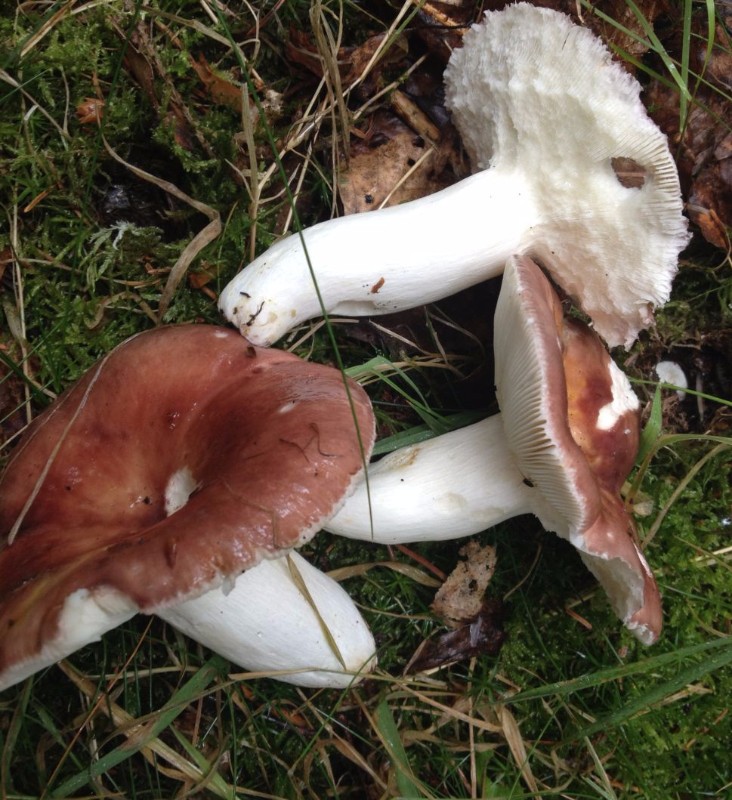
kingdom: Fungi
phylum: Basidiomycota
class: Agaricomycetes
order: Russulales
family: Russulaceae
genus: Russula
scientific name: Russula vesca
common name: spiselig skørhat
